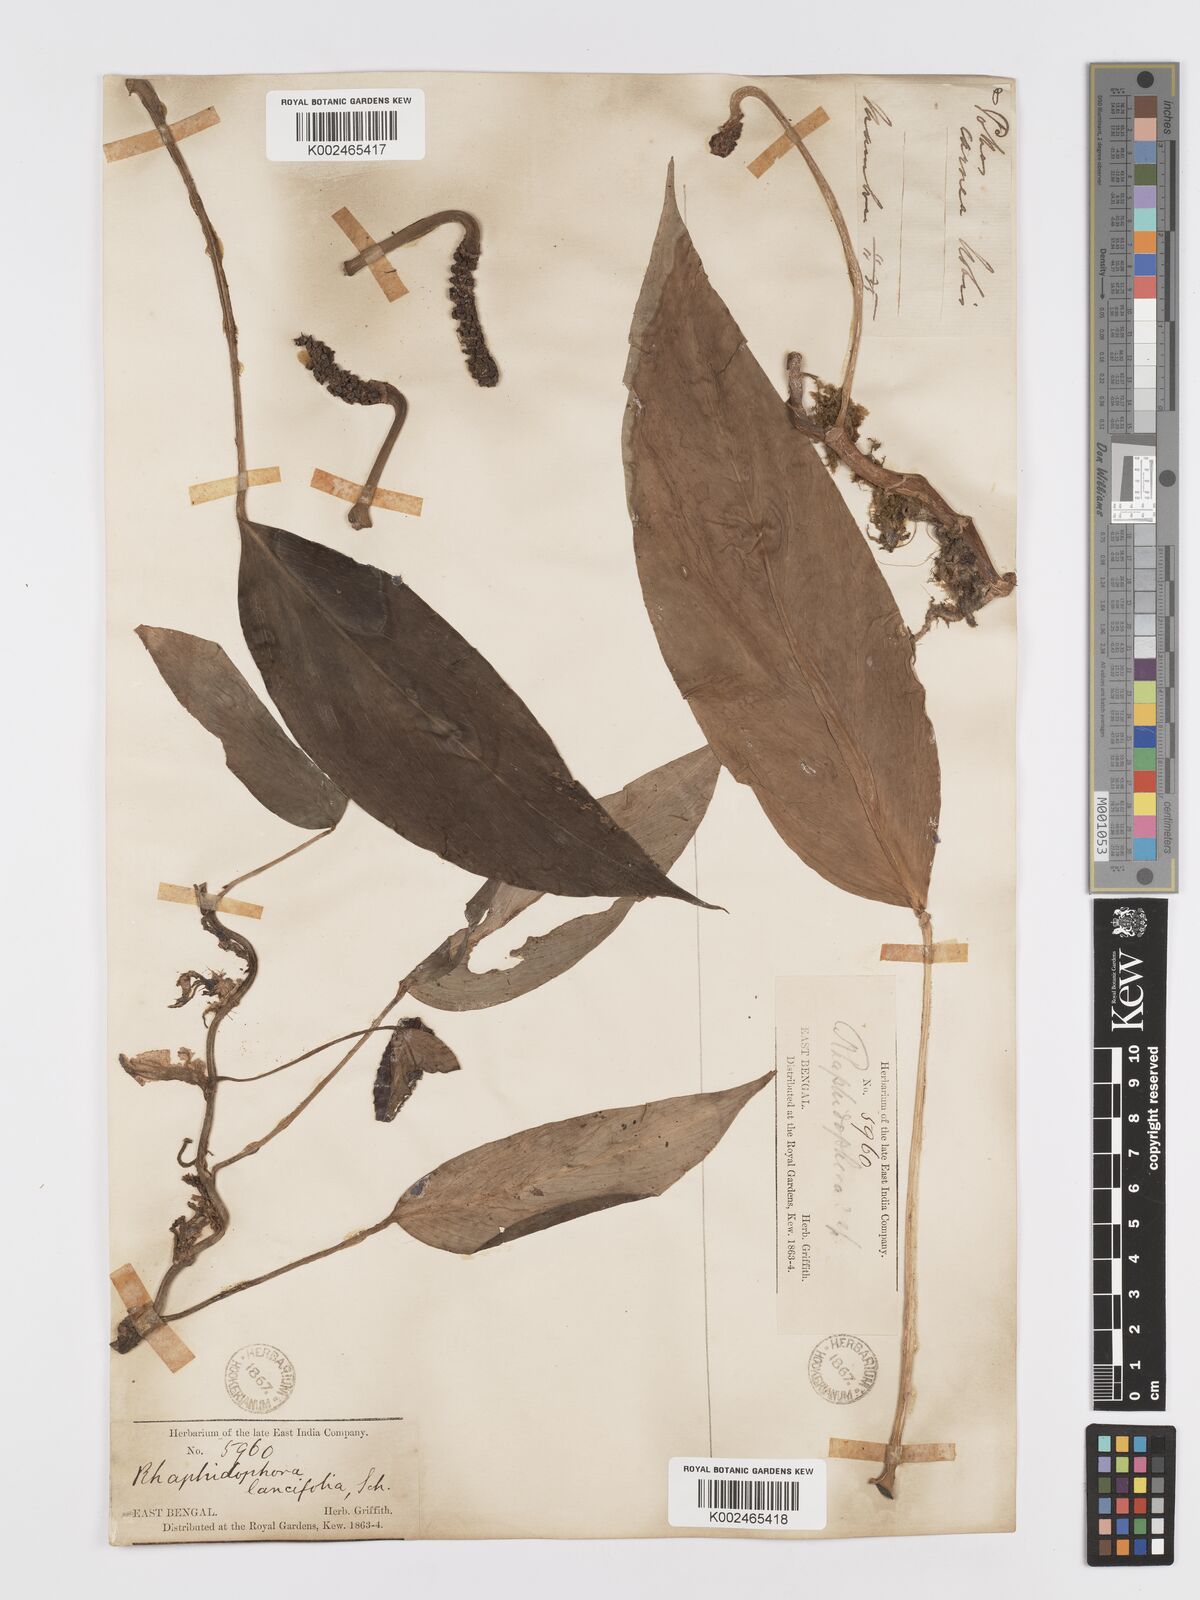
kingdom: Plantae
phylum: Tracheophyta
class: Liliopsida
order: Alismatales
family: Araceae
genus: Rhaphidophora
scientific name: Rhaphidophora peepla
